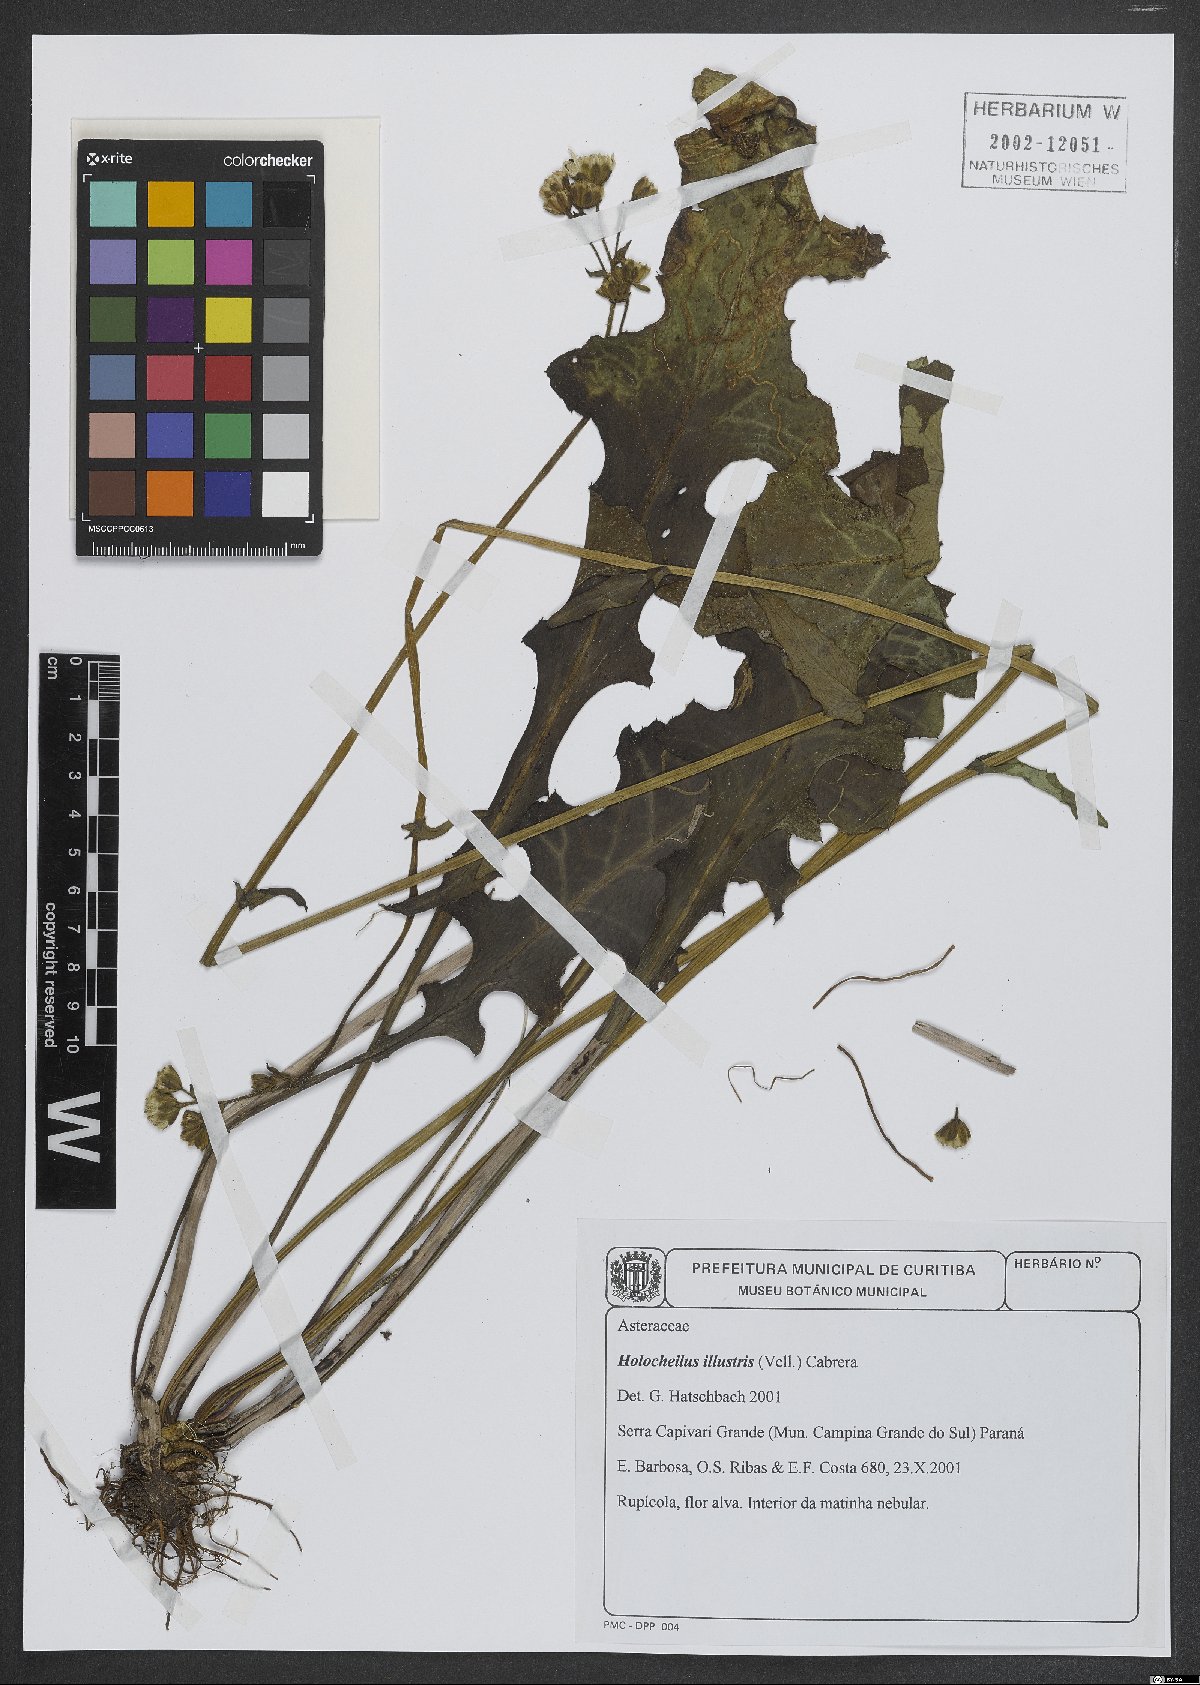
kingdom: Plantae
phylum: Tracheophyta
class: Magnoliopsida
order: Asterales
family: Asteraceae
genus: Holocheilus
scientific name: Holocheilus illustris
